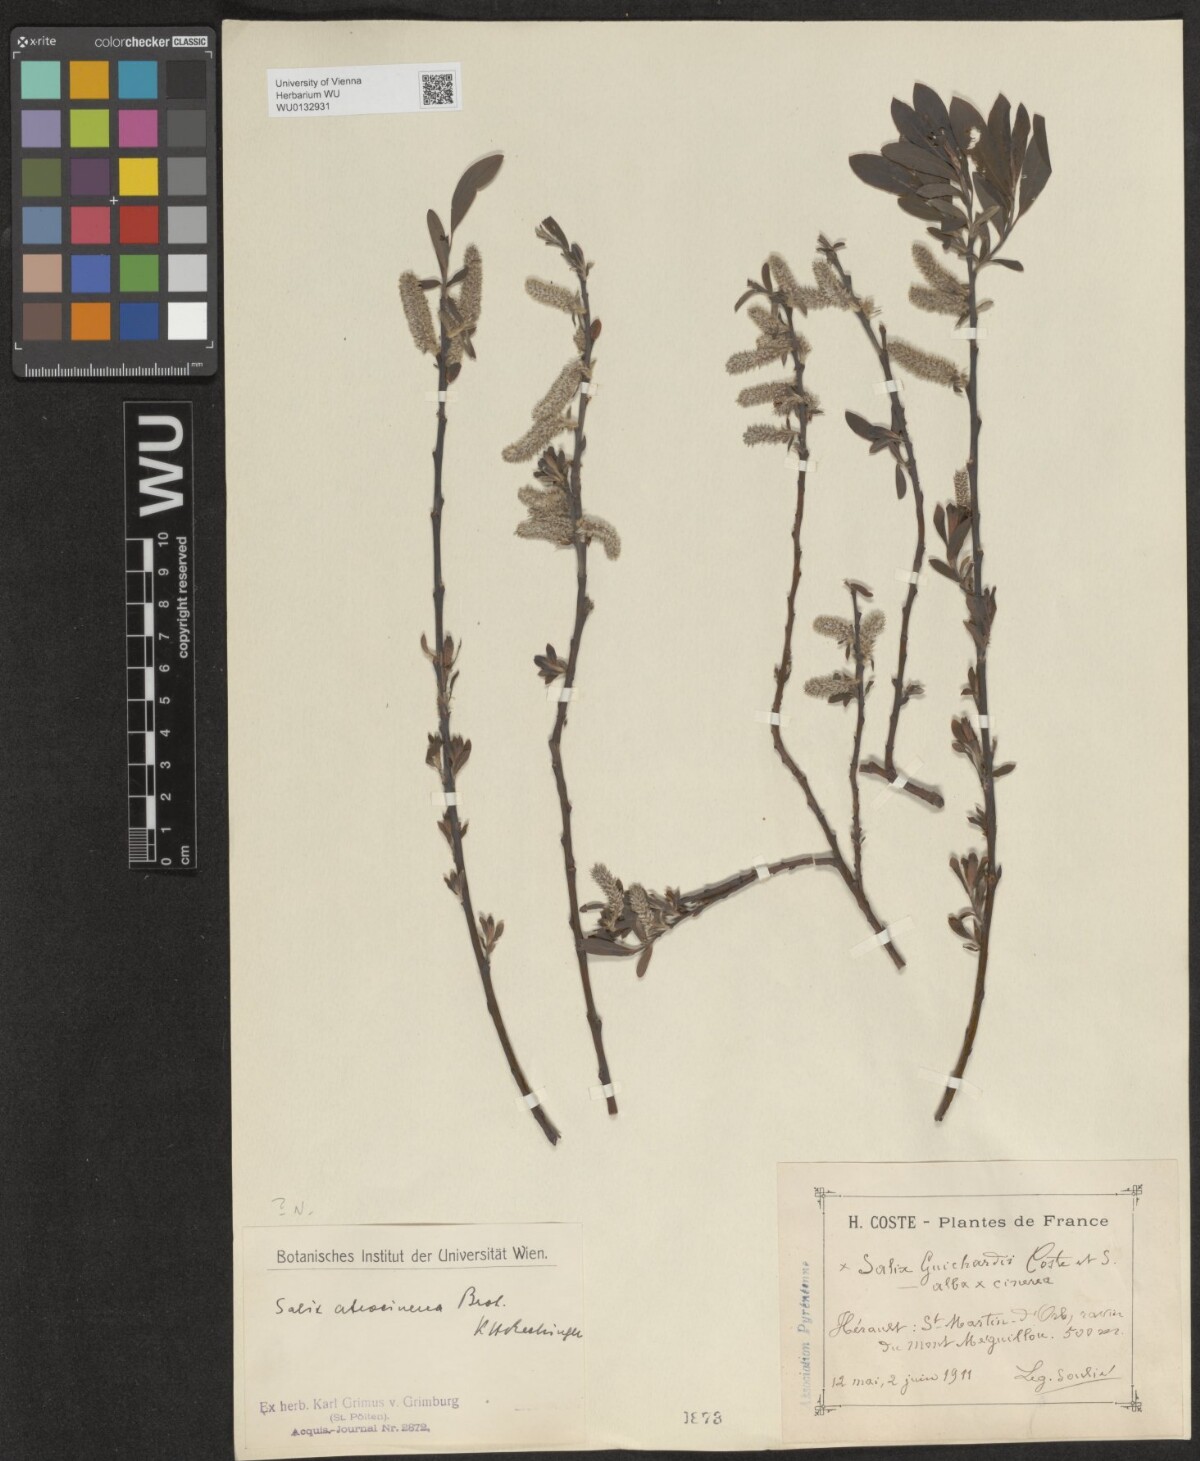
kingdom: Plantae
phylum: Tracheophyta
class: Magnoliopsida
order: Malpighiales
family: Salicaceae
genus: Salix
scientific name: Salix atrocinerea
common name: Rusty willow
